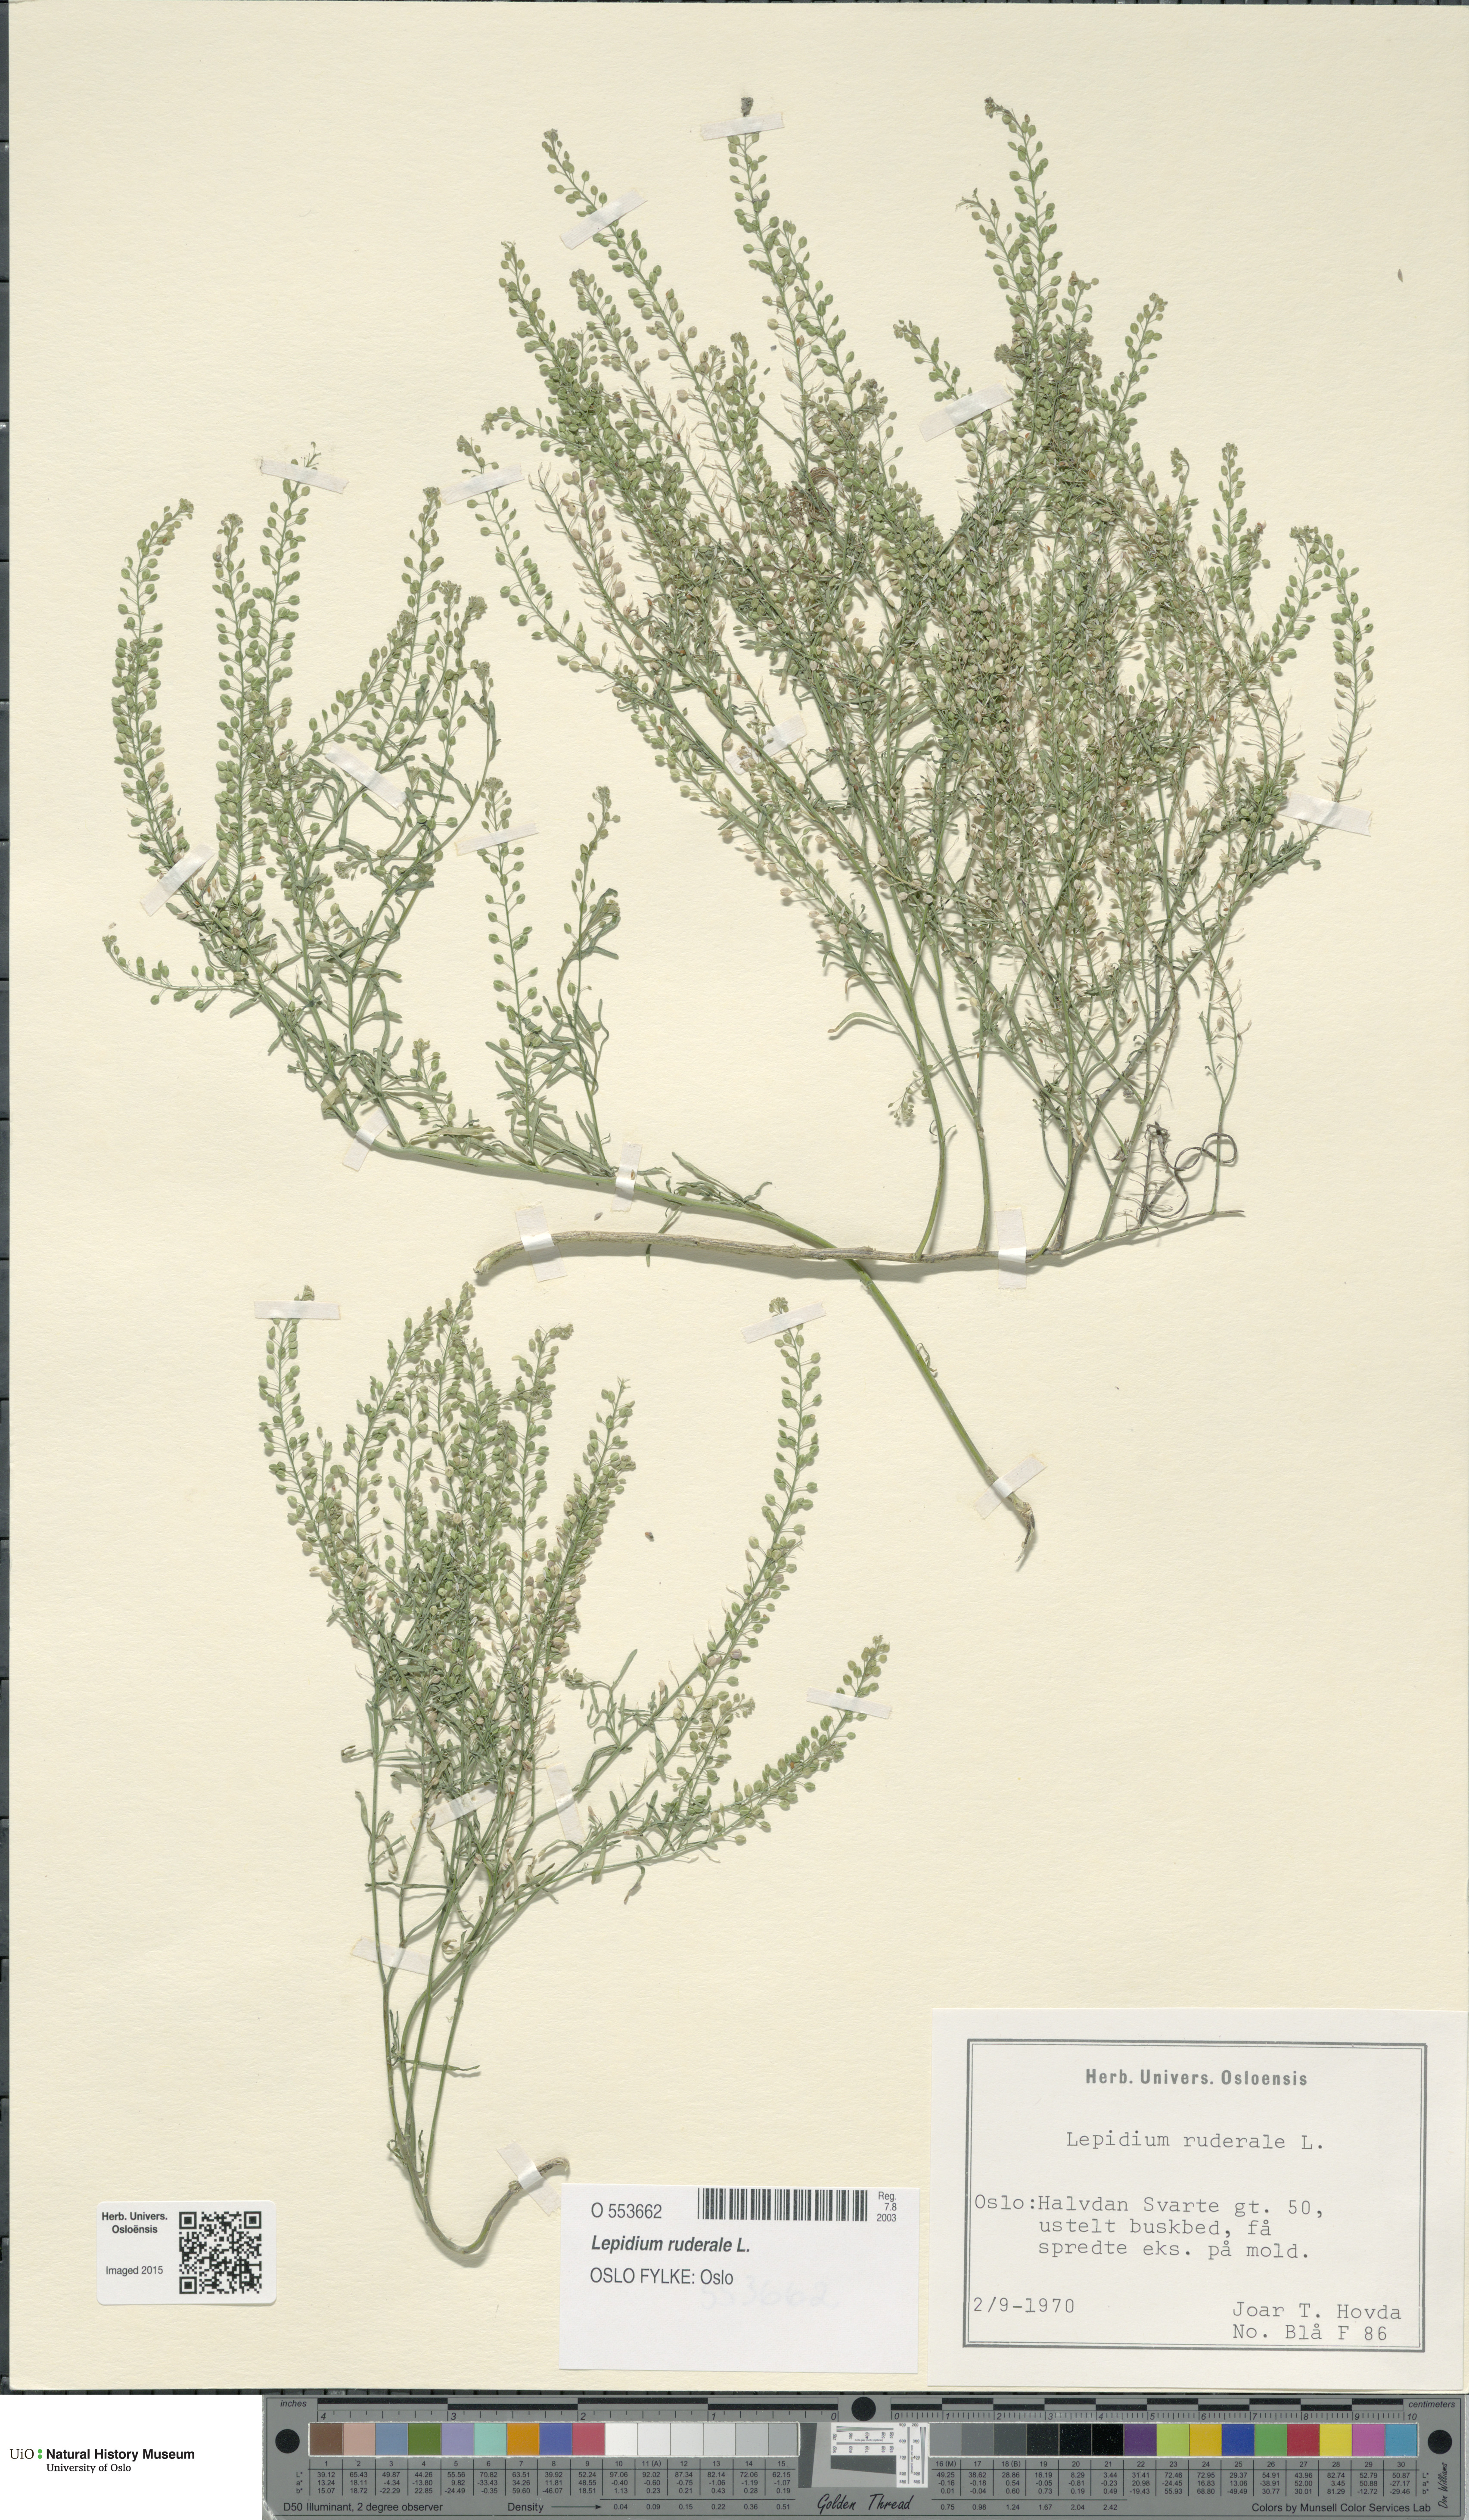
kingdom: Plantae
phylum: Tracheophyta
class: Magnoliopsida
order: Brassicales
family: Brassicaceae
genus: Lepidium
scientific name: Lepidium ruderale
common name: Narrow-leaved pepperwort
